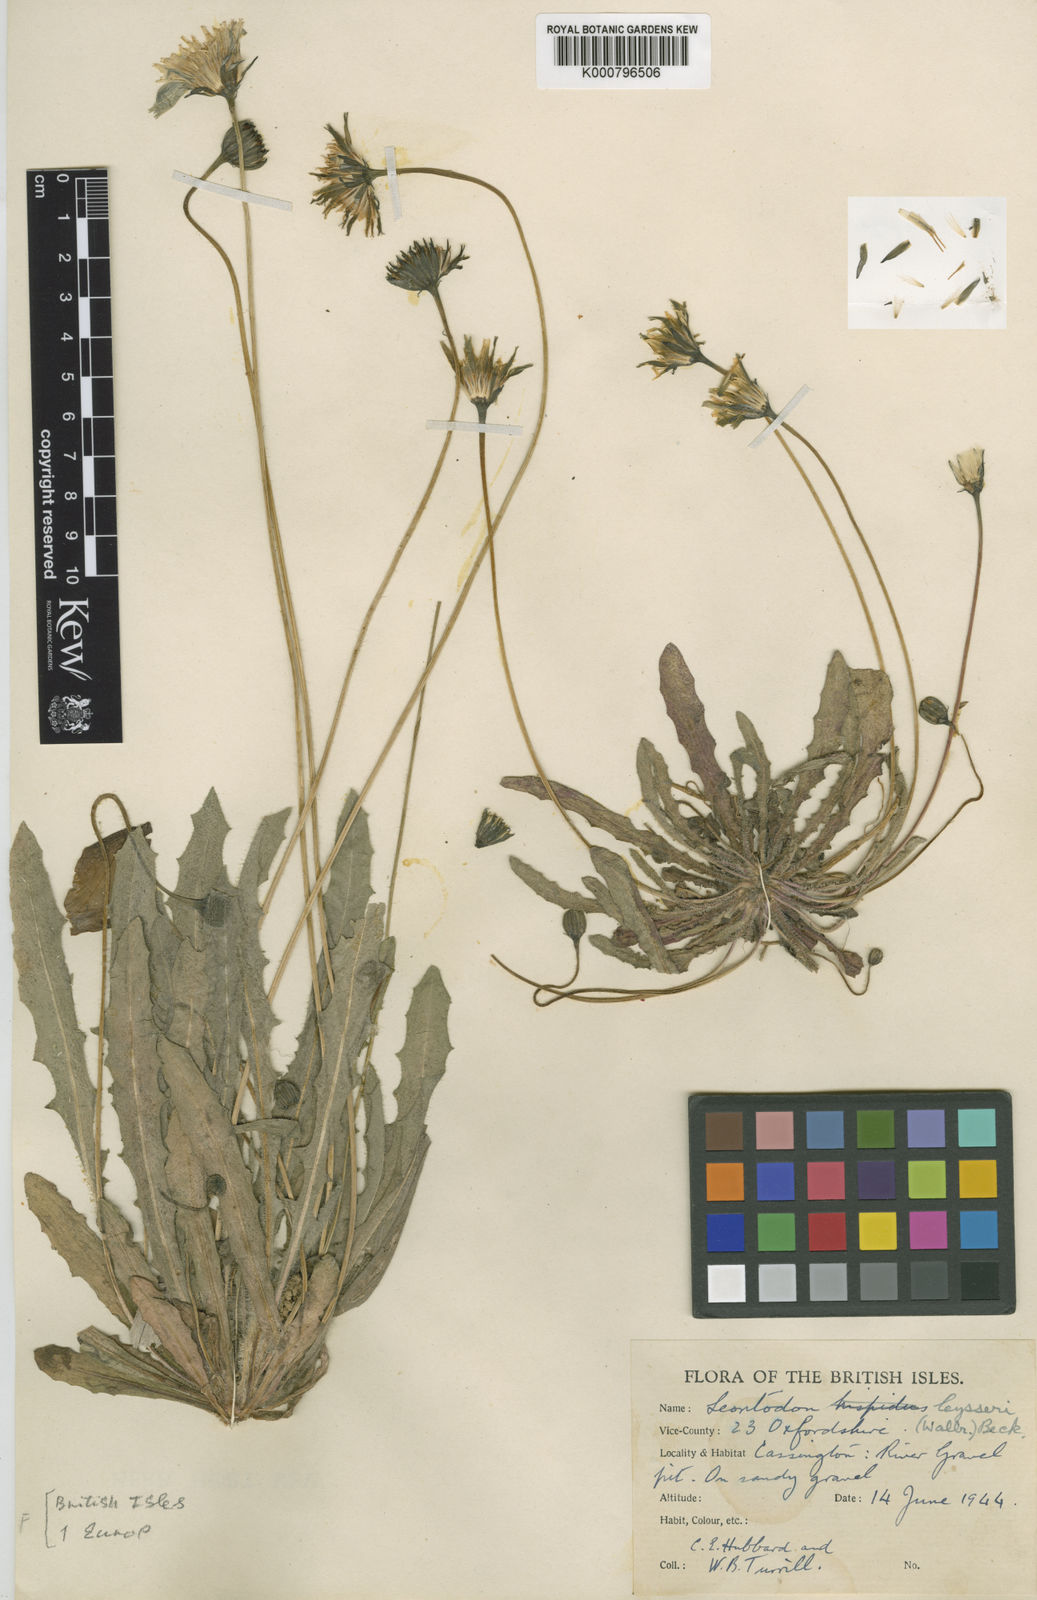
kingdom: Plantae
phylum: Tracheophyta
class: Magnoliopsida
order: Asterales
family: Asteraceae
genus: Leontodon
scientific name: Leontodon
